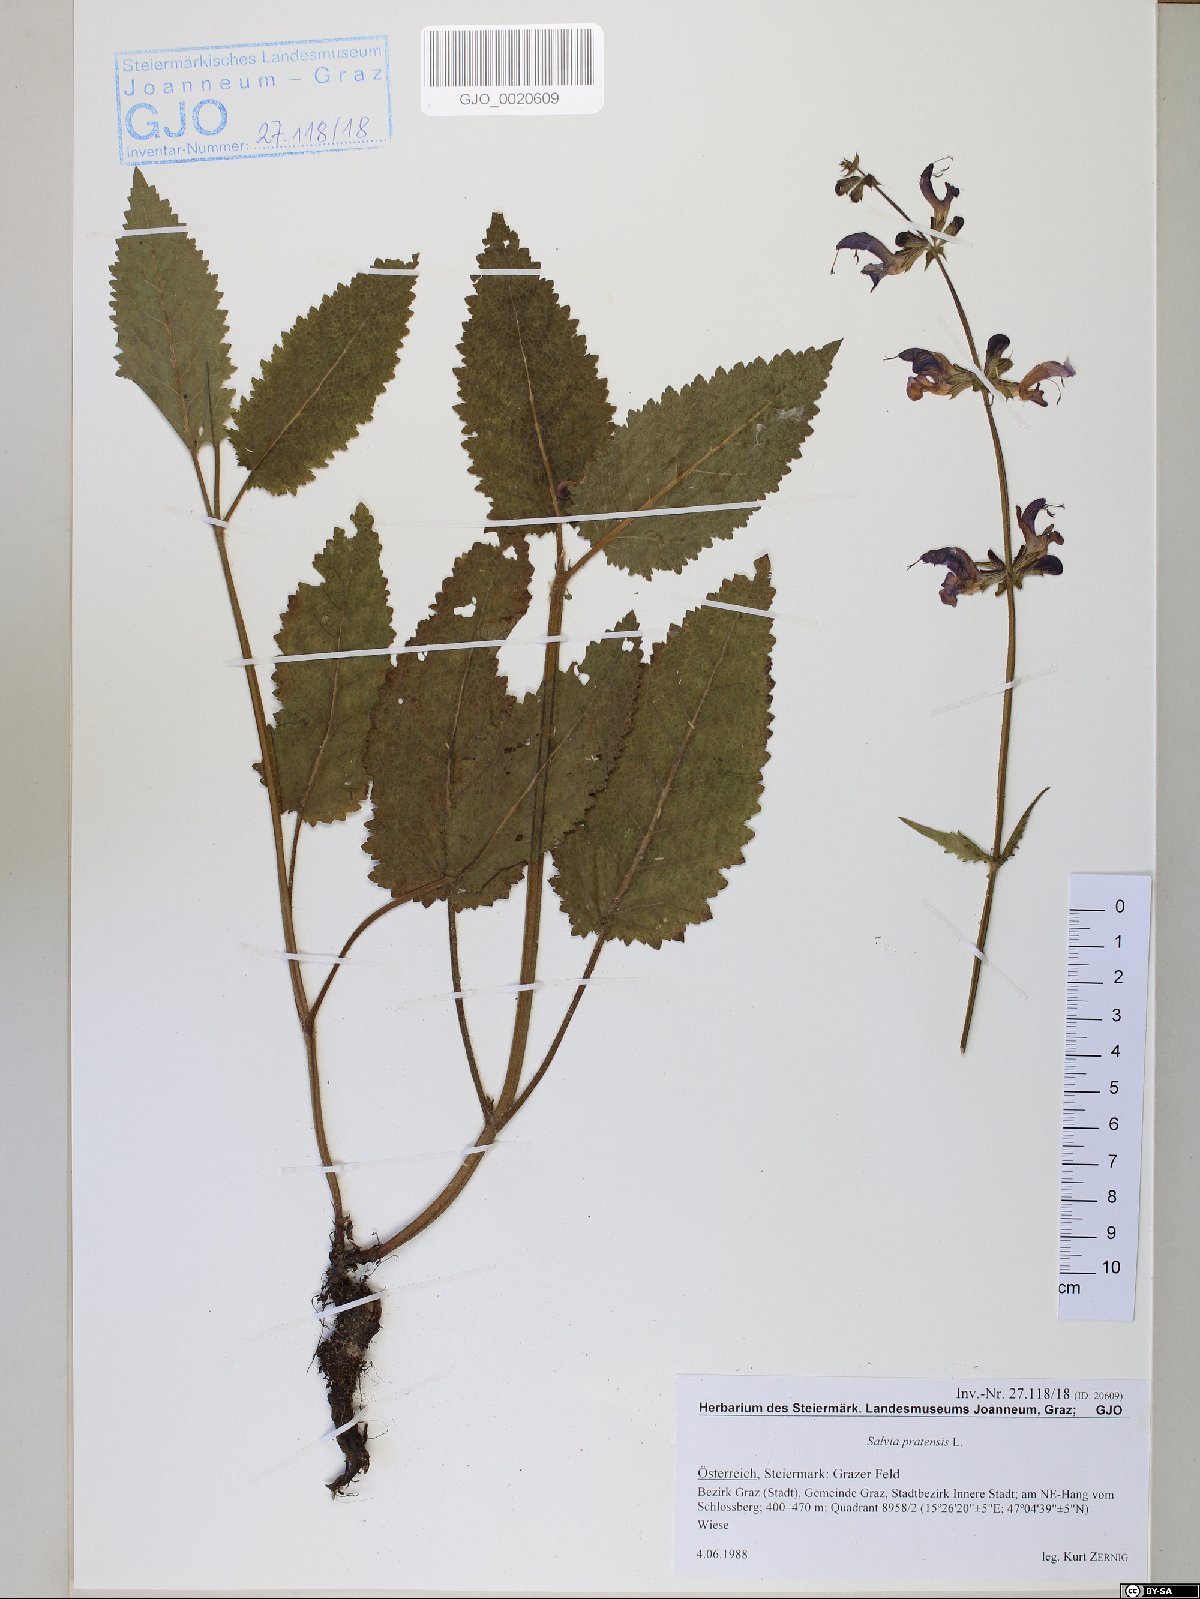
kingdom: Plantae
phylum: Tracheophyta
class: Magnoliopsida
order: Lamiales
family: Lamiaceae
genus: Salvia
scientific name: Salvia pratensis
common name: Meadow sage
